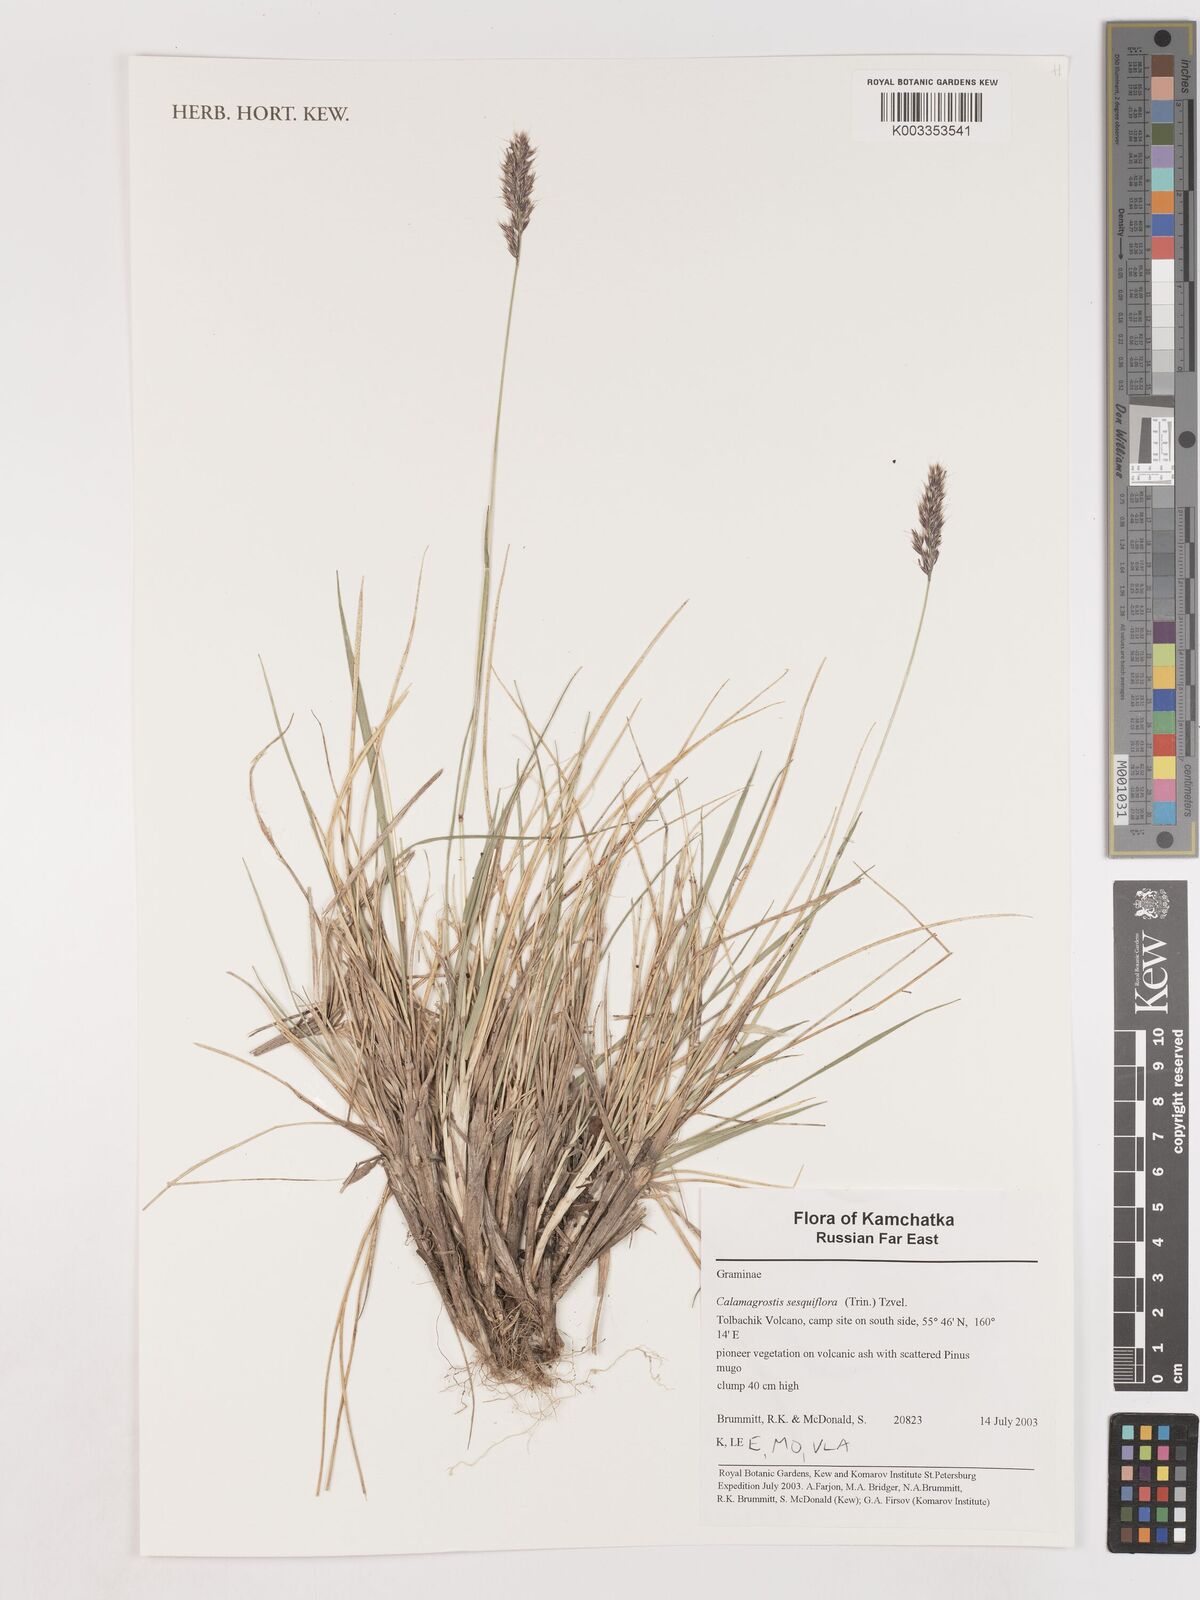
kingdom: Plantae
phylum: Tracheophyta
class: Liliopsida
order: Poales
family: Poaceae
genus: Podagrostis
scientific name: Podagrostis sesquiflora
